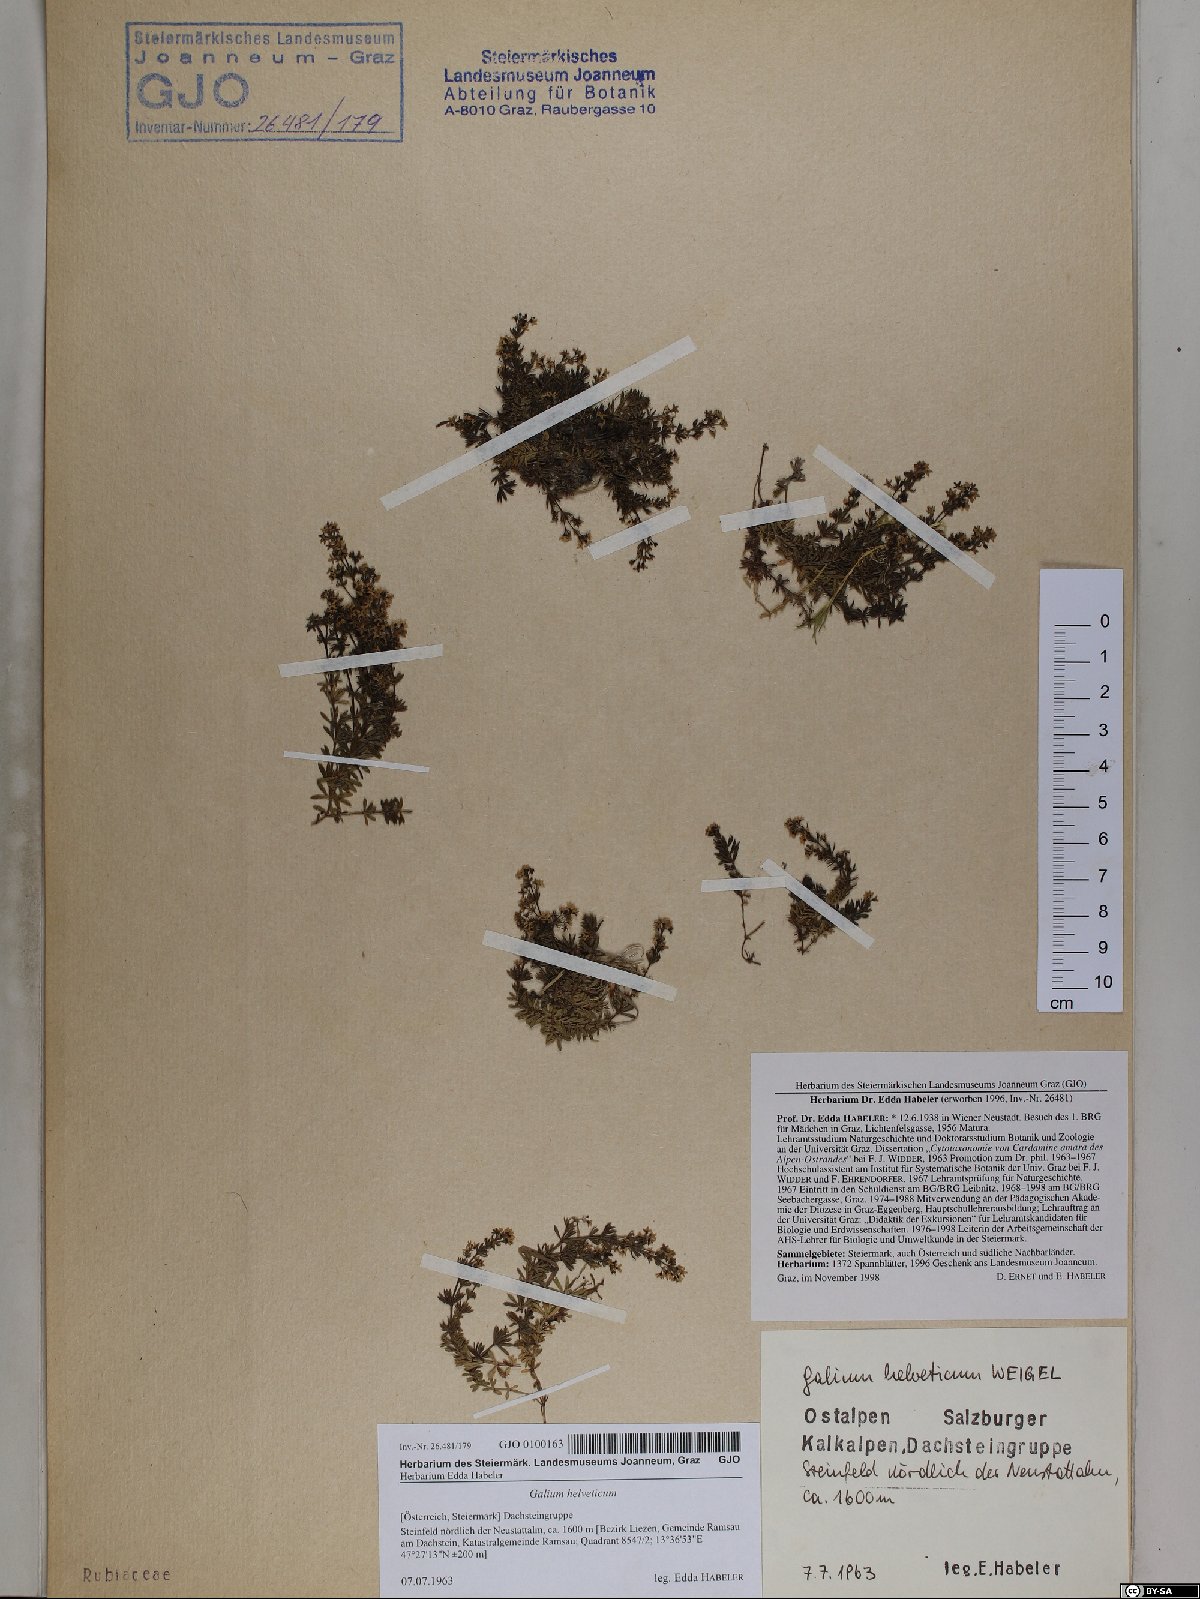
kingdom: Plantae
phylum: Tracheophyta
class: Magnoliopsida
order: Gentianales
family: Rubiaceae
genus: Galium
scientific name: Galium saxatile
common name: Heath bedstraw
